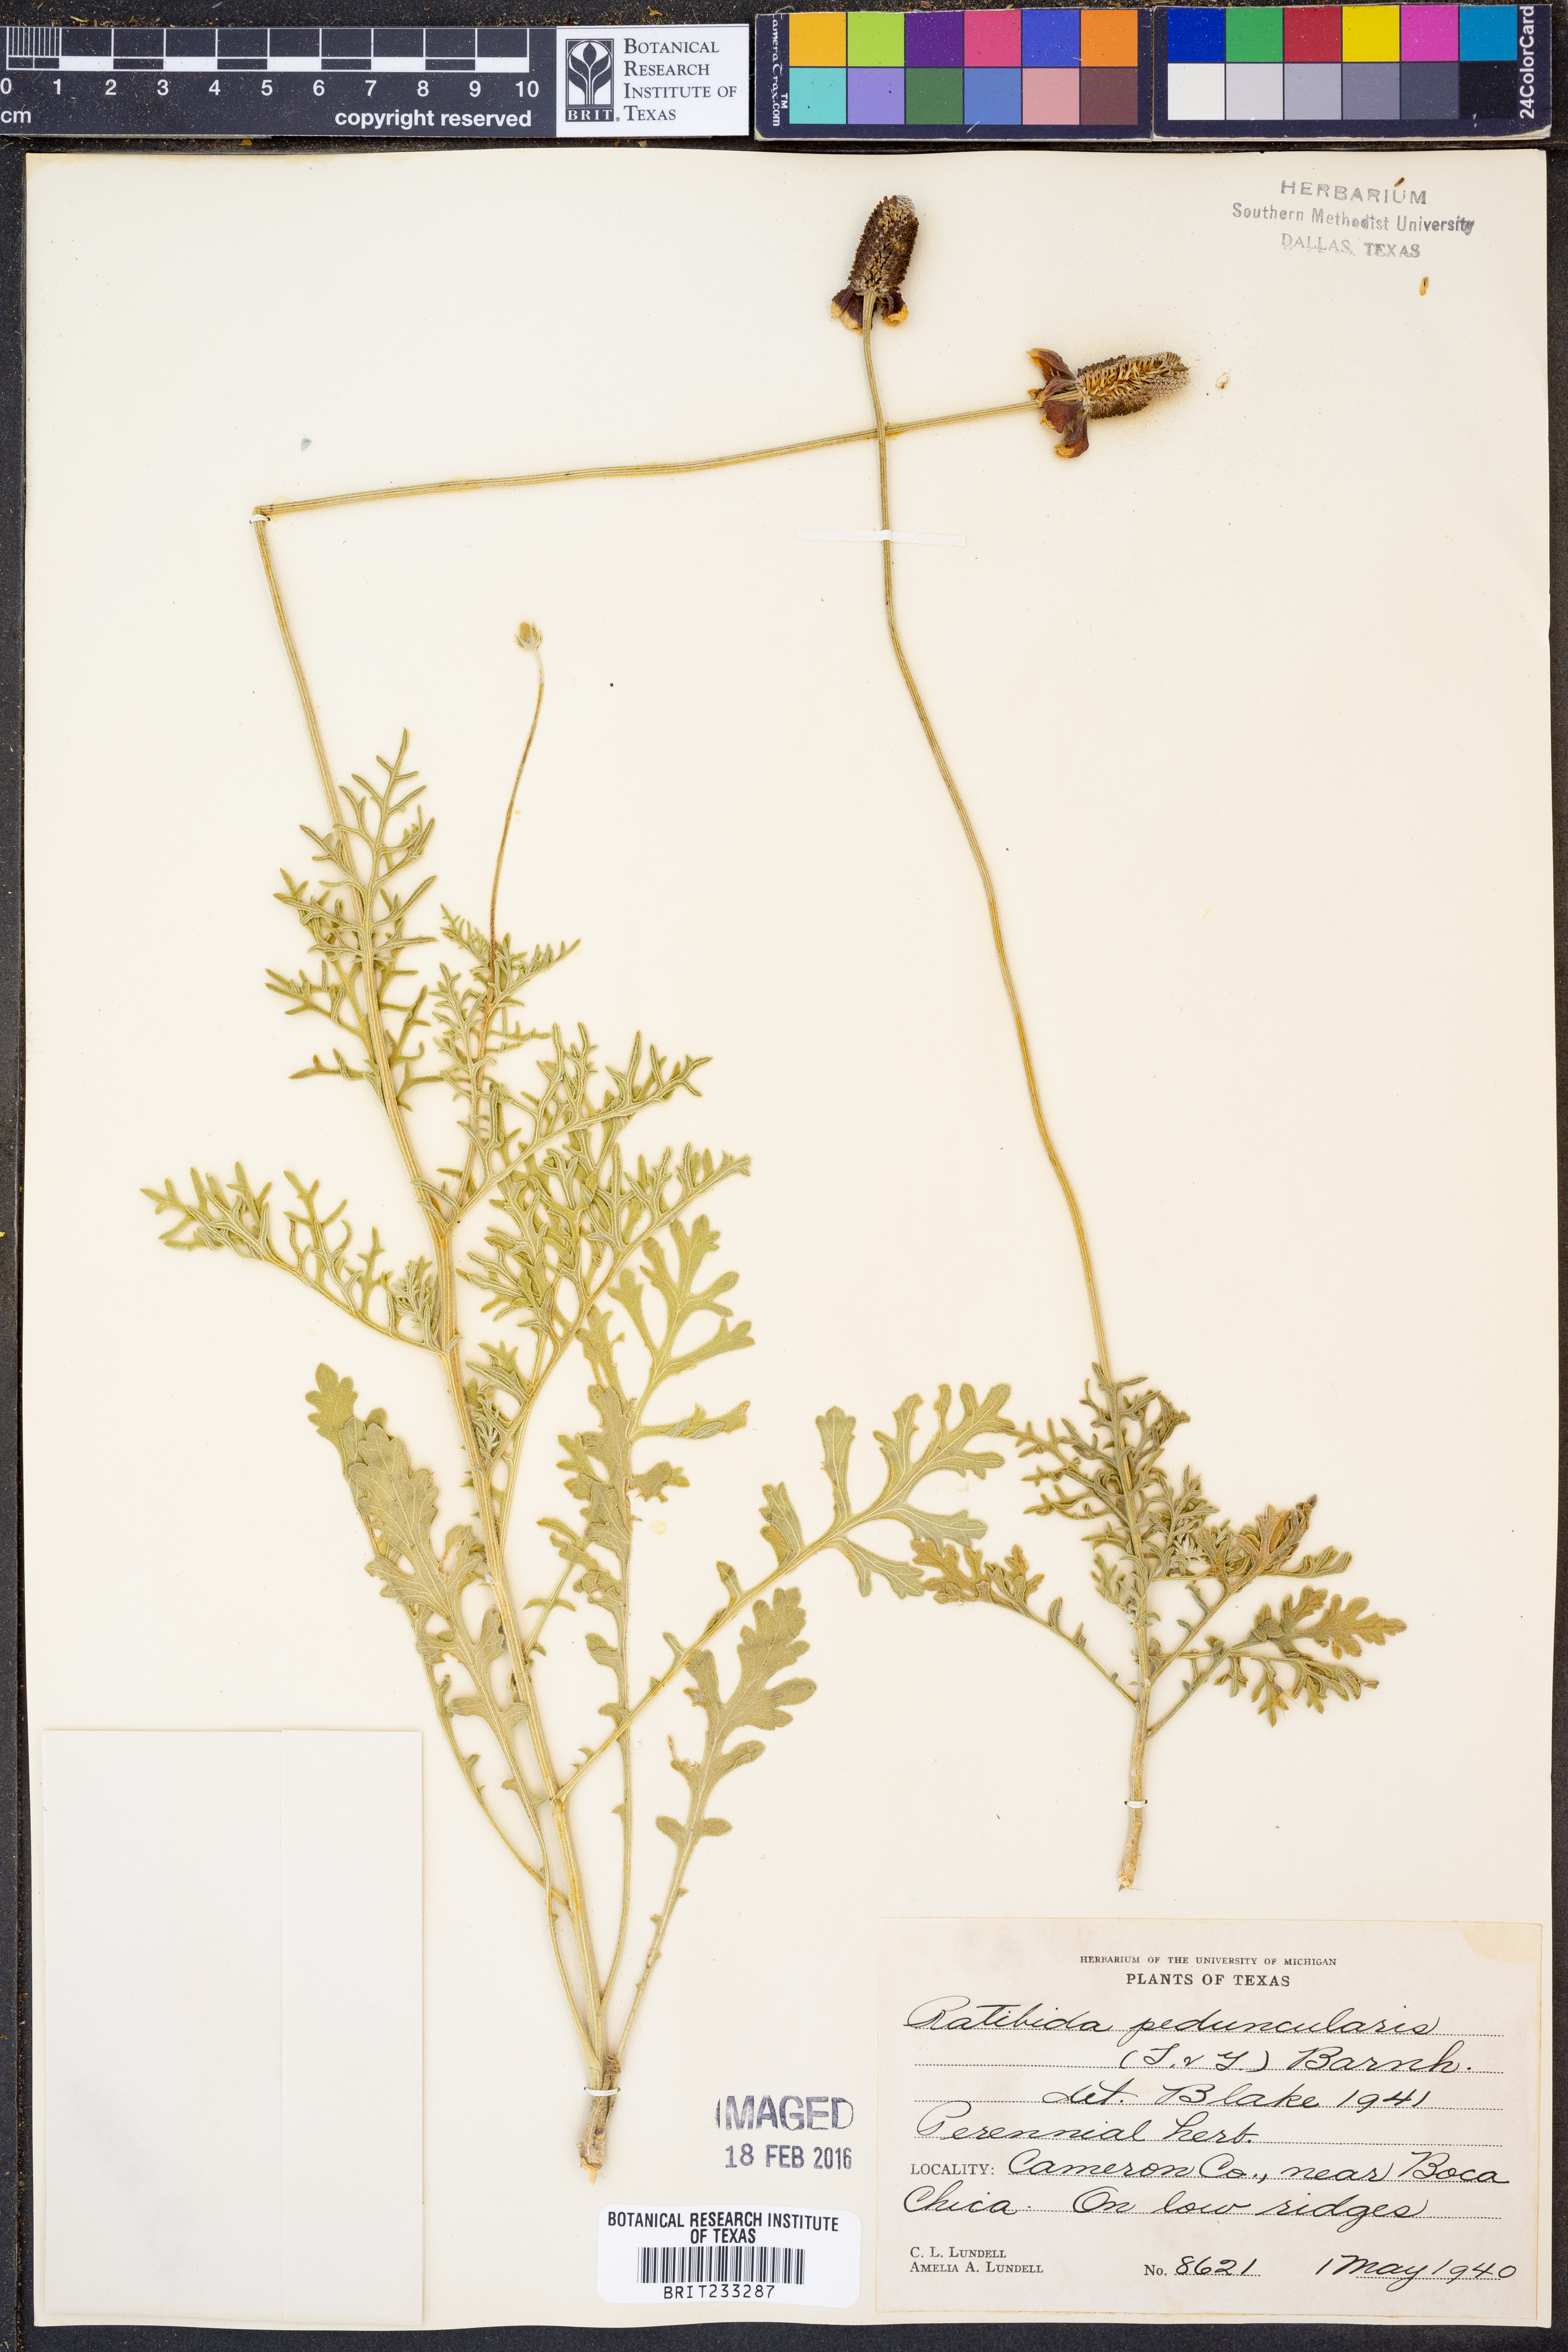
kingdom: Plantae
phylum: Tracheophyta
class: Magnoliopsida
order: Asterales
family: Asteraceae
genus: Ratibida
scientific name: Ratibida peduncularis
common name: Naked prairie-coneflower
